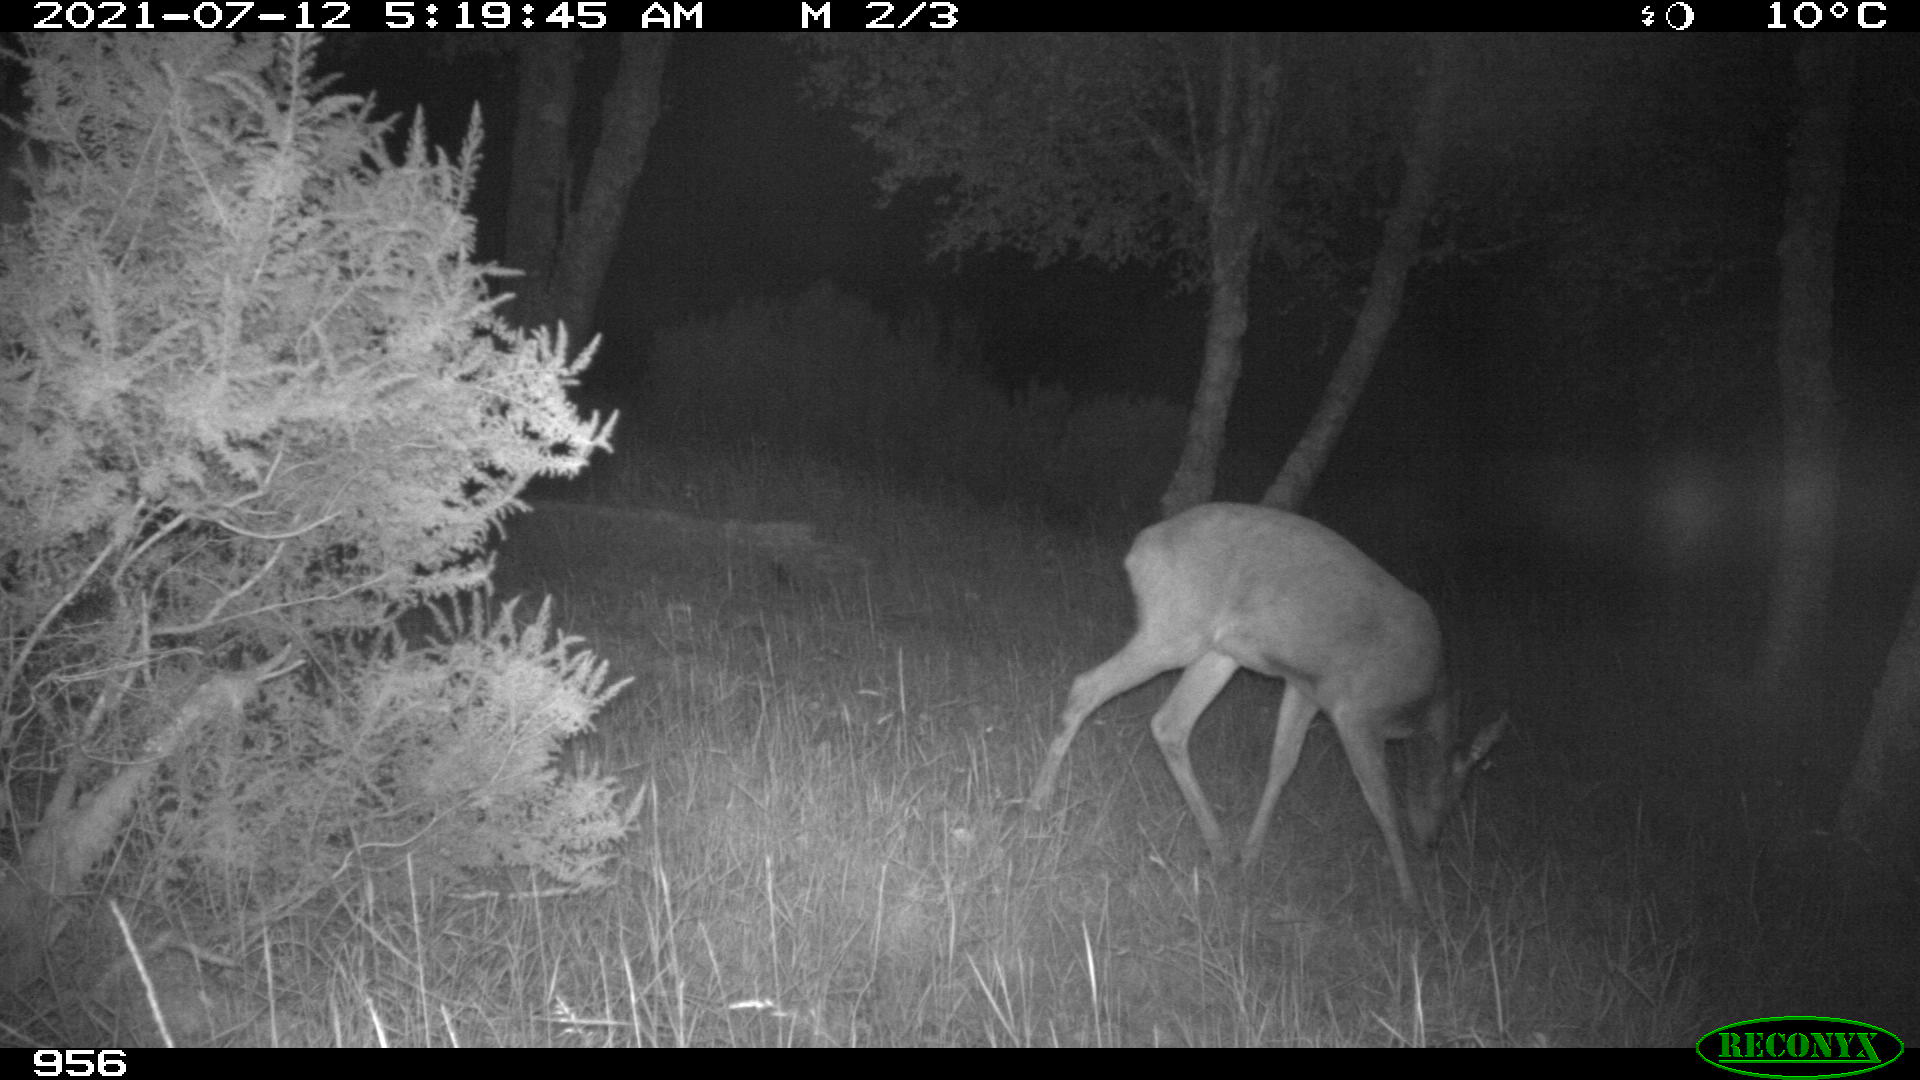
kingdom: Animalia
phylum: Chordata
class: Mammalia
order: Artiodactyla
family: Cervidae
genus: Capreolus
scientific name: Capreolus capreolus
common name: Western roe deer
